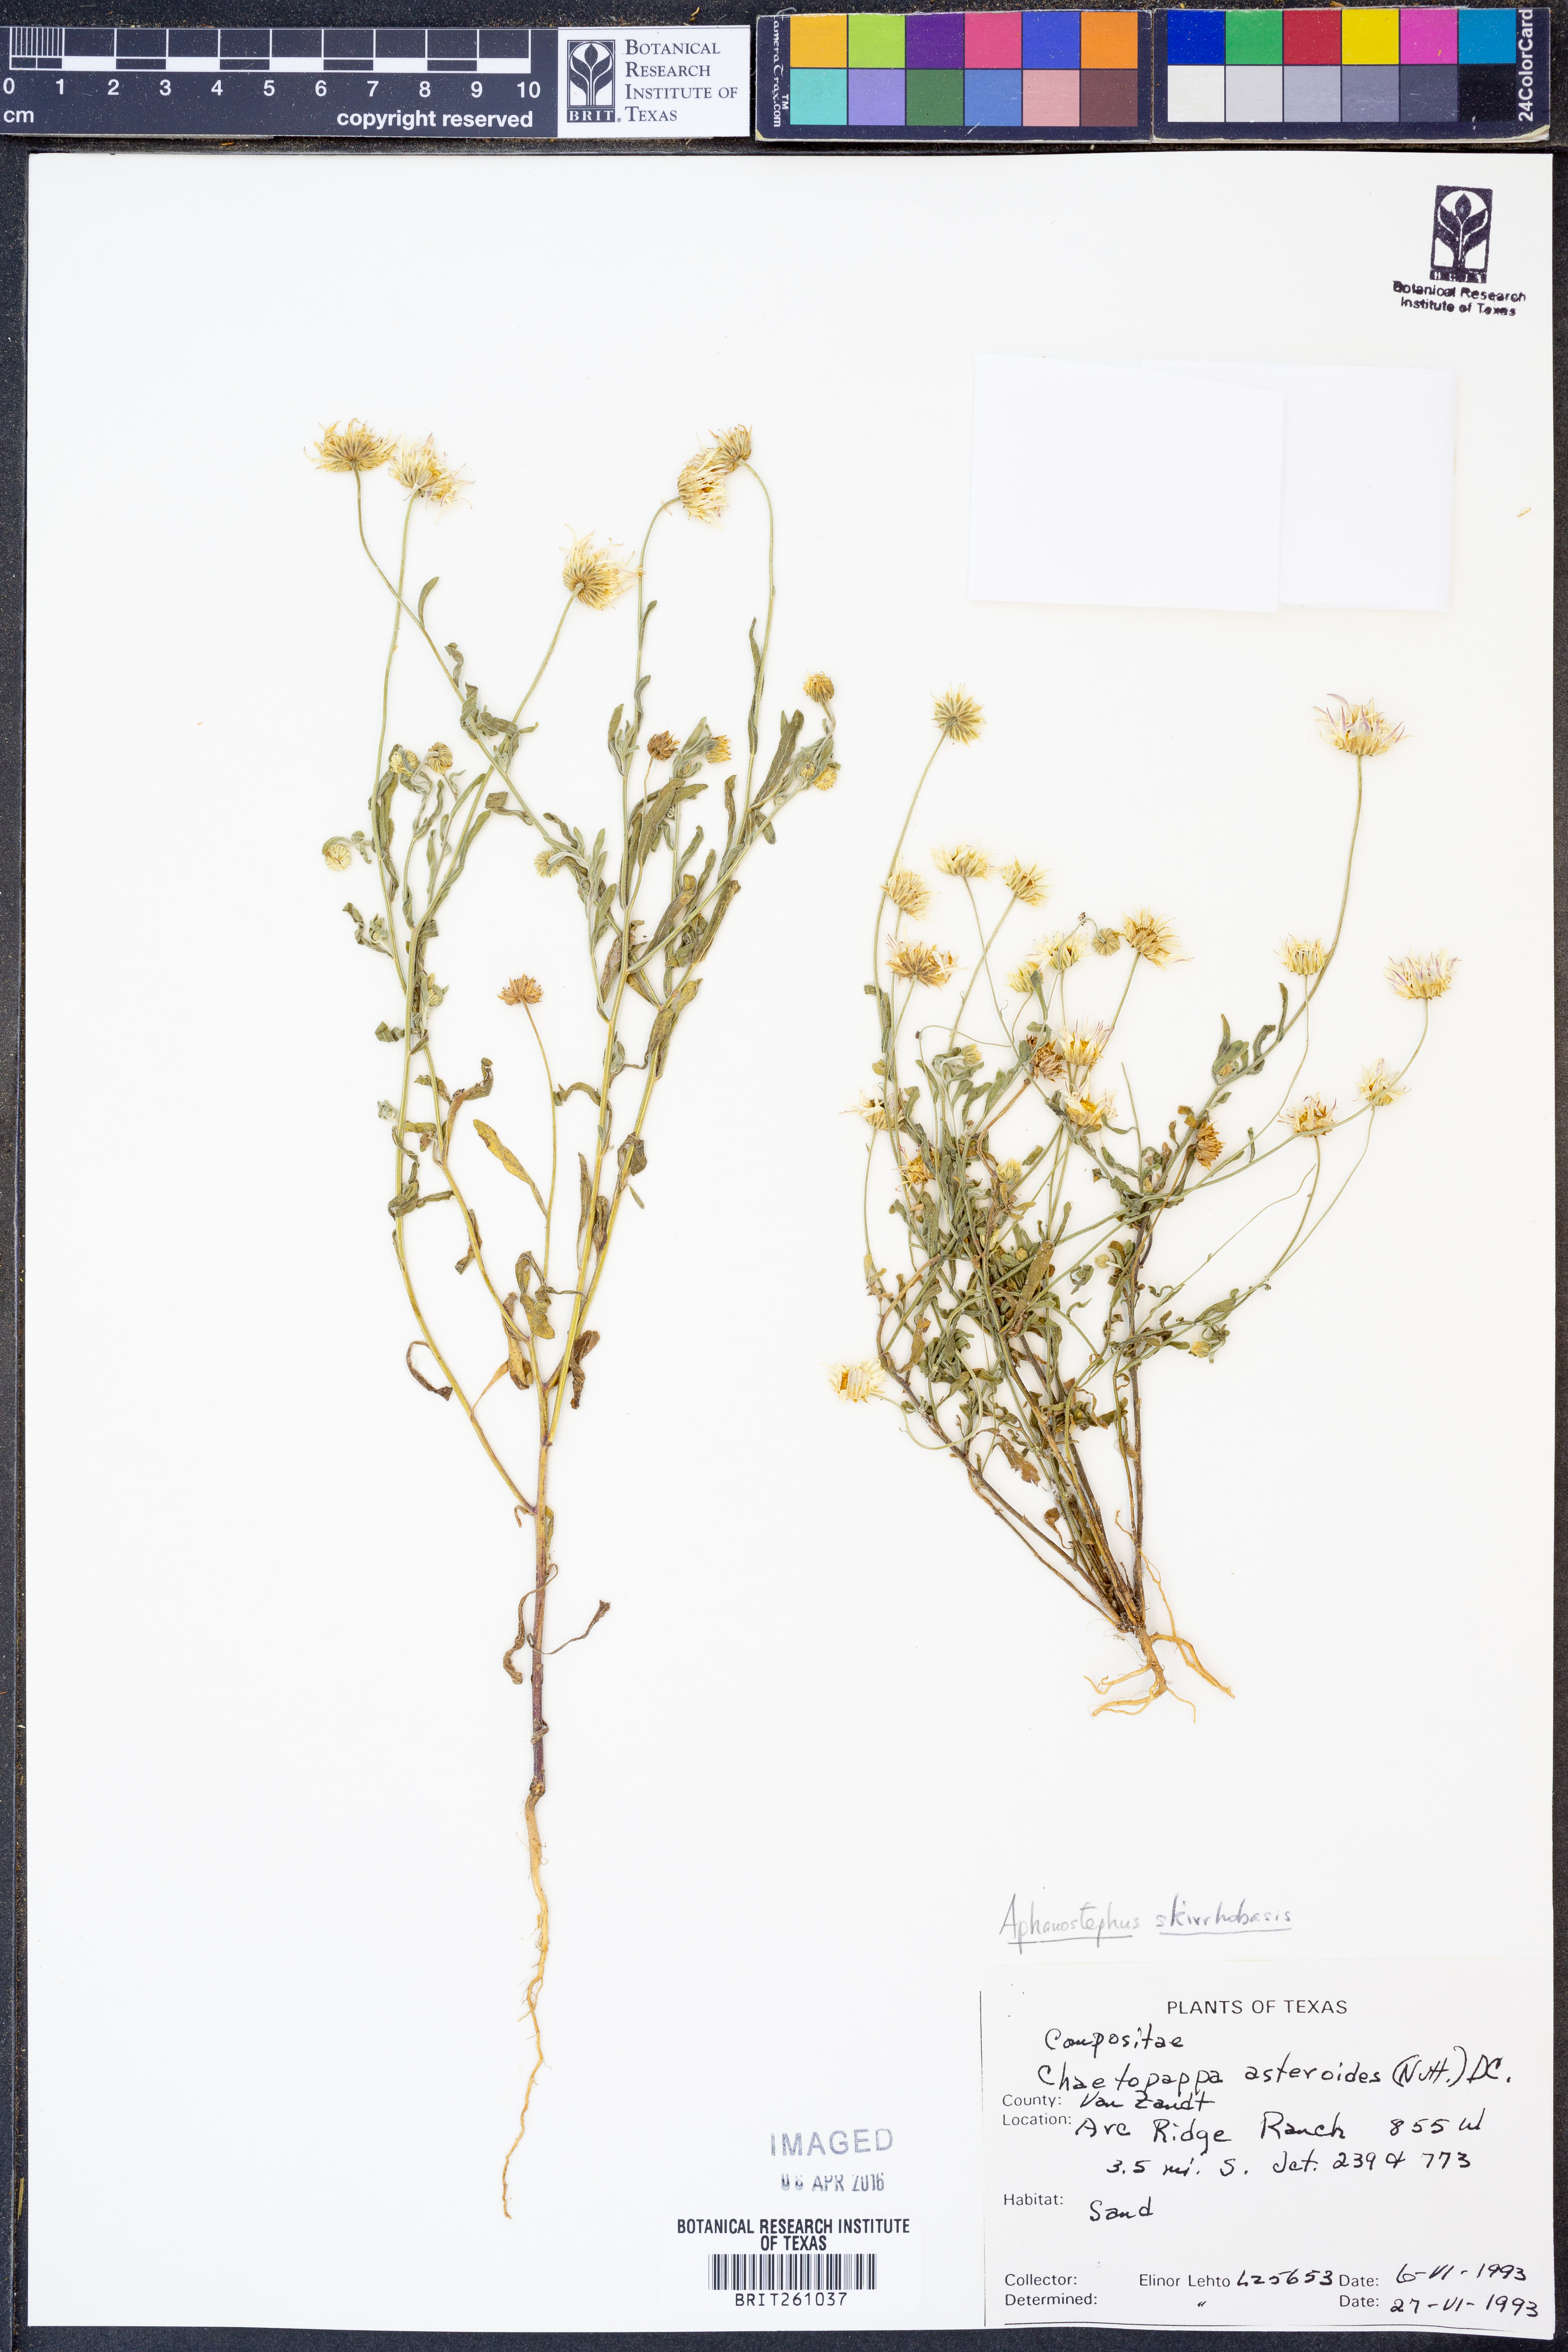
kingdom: Plantae
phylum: Tracheophyta
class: Magnoliopsida
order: Asterales
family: Asteraceae
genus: Aphanostephus
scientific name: Aphanostephus skirrhobasis
